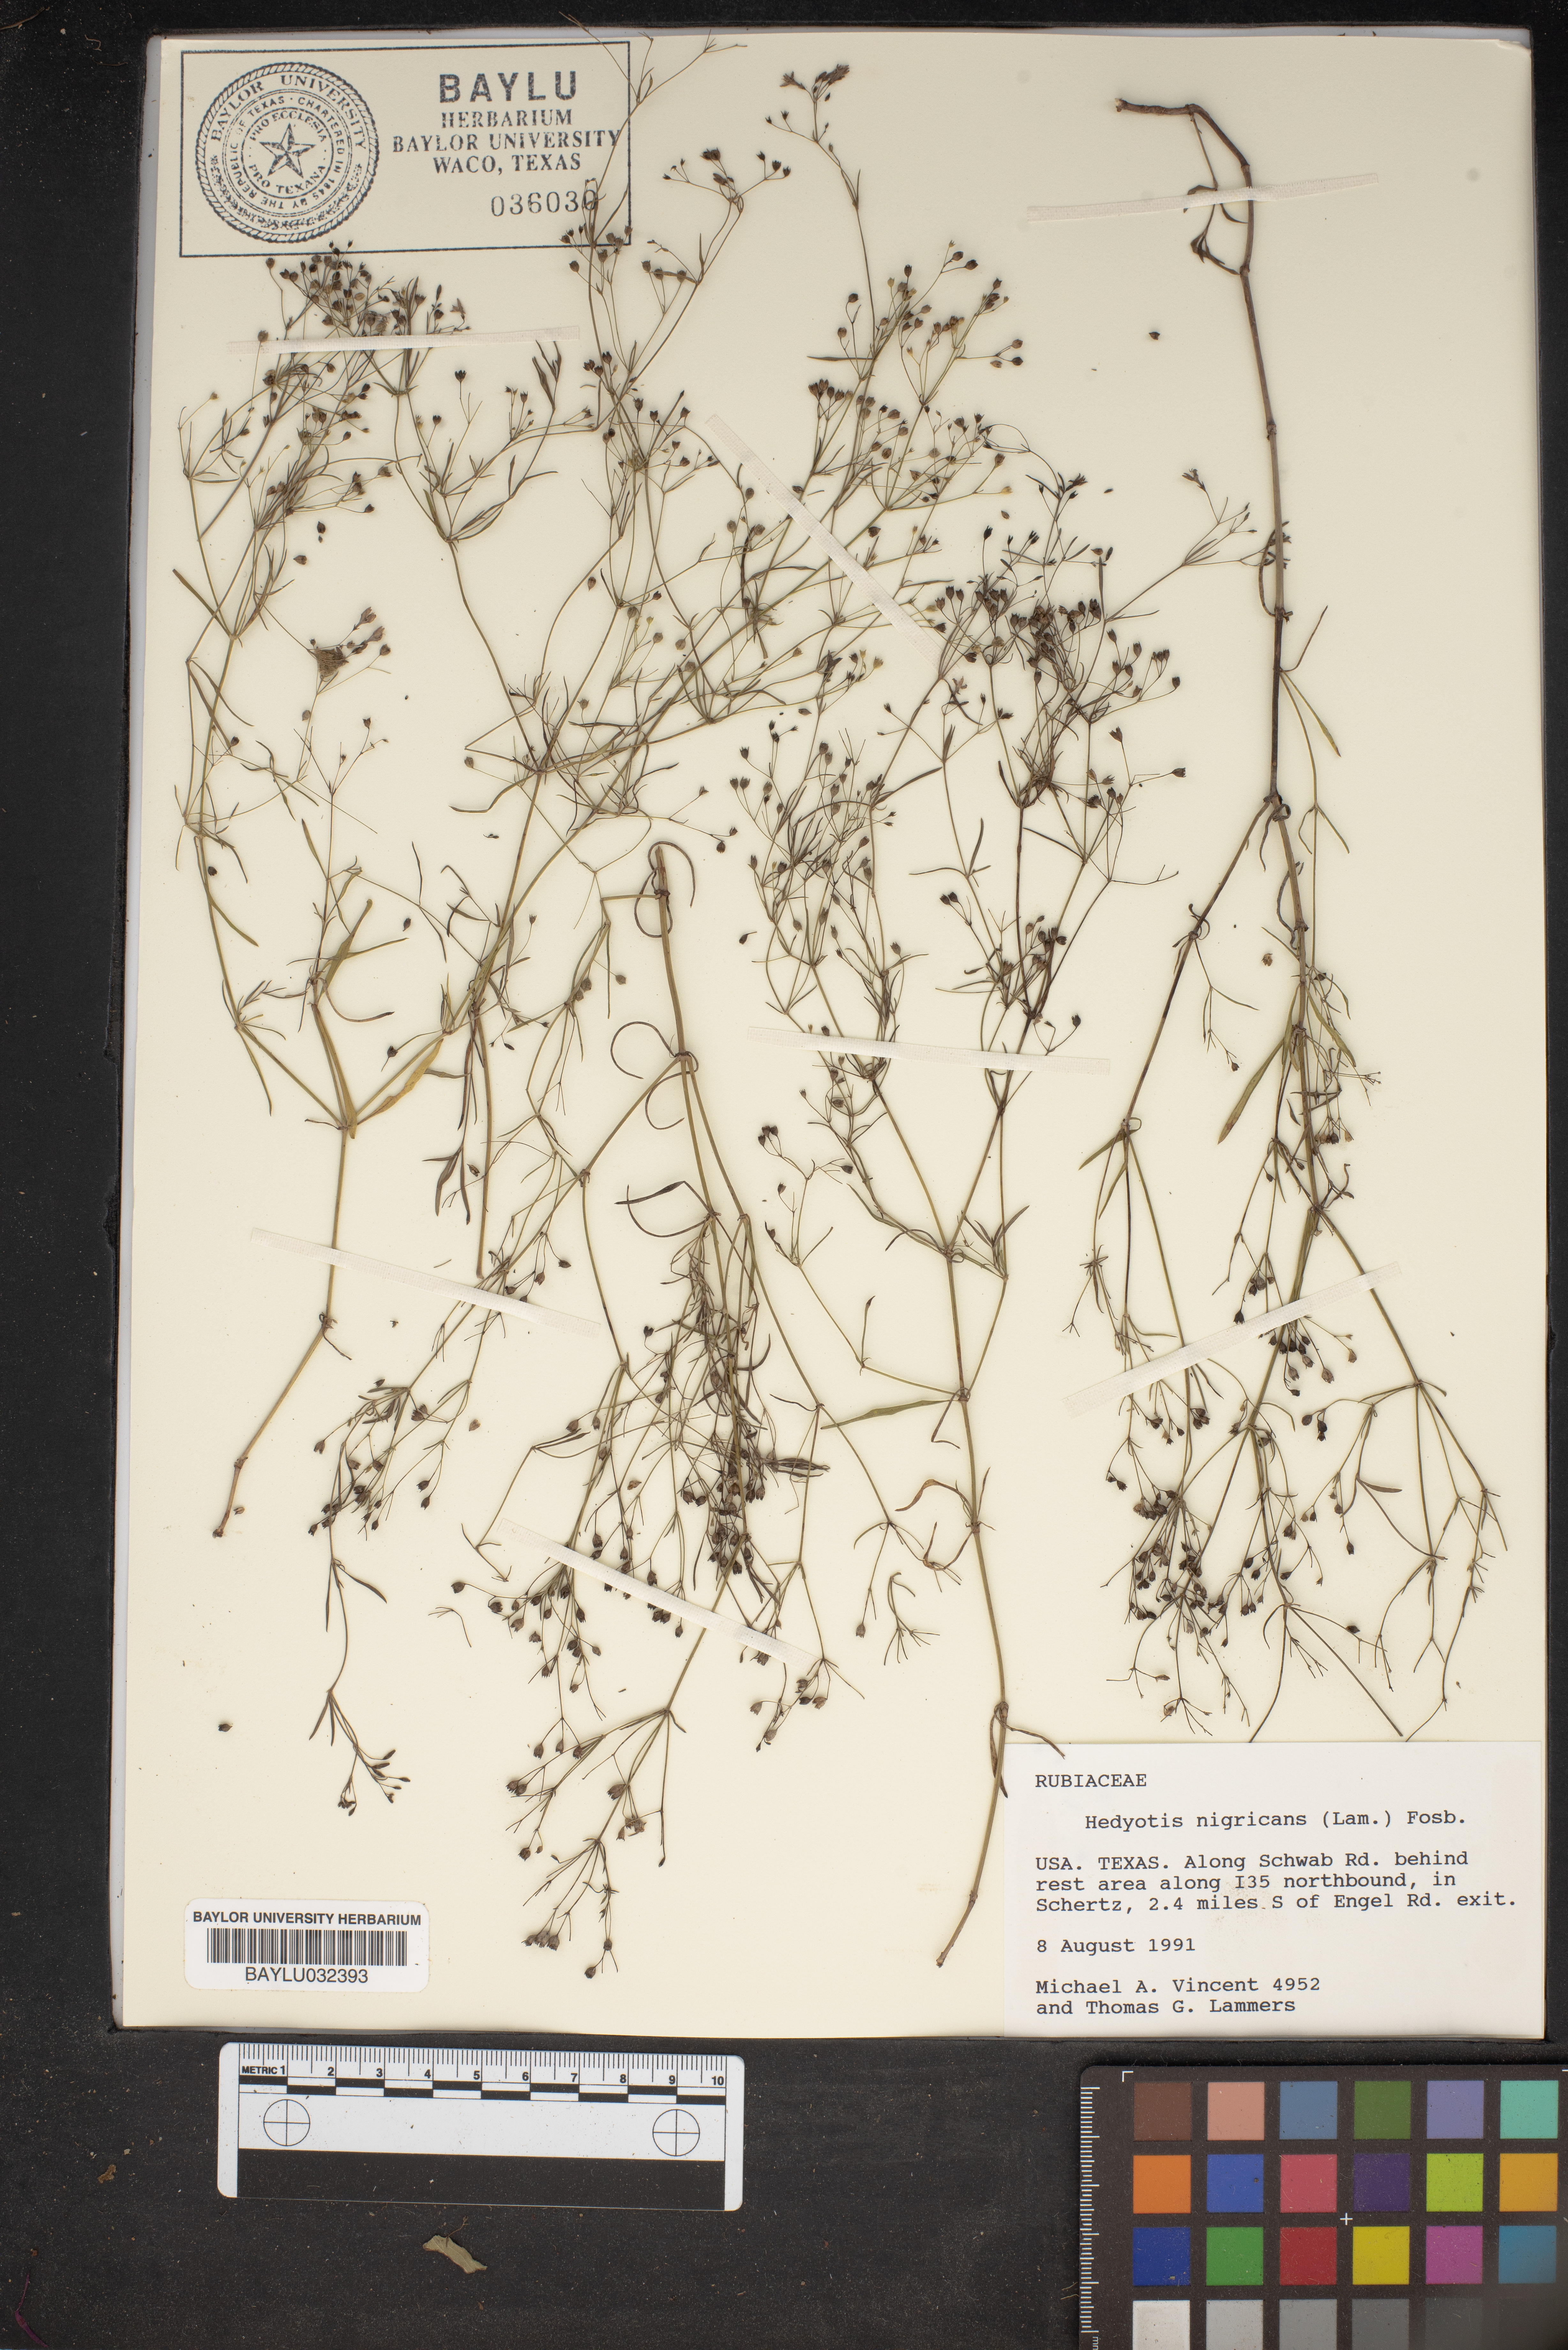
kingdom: Plantae
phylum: Tracheophyta
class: Magnoliopsida
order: Gentianales
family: Rubiaceae
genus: Stenaria
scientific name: Stenaria nigricans
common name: Diamondflowers
